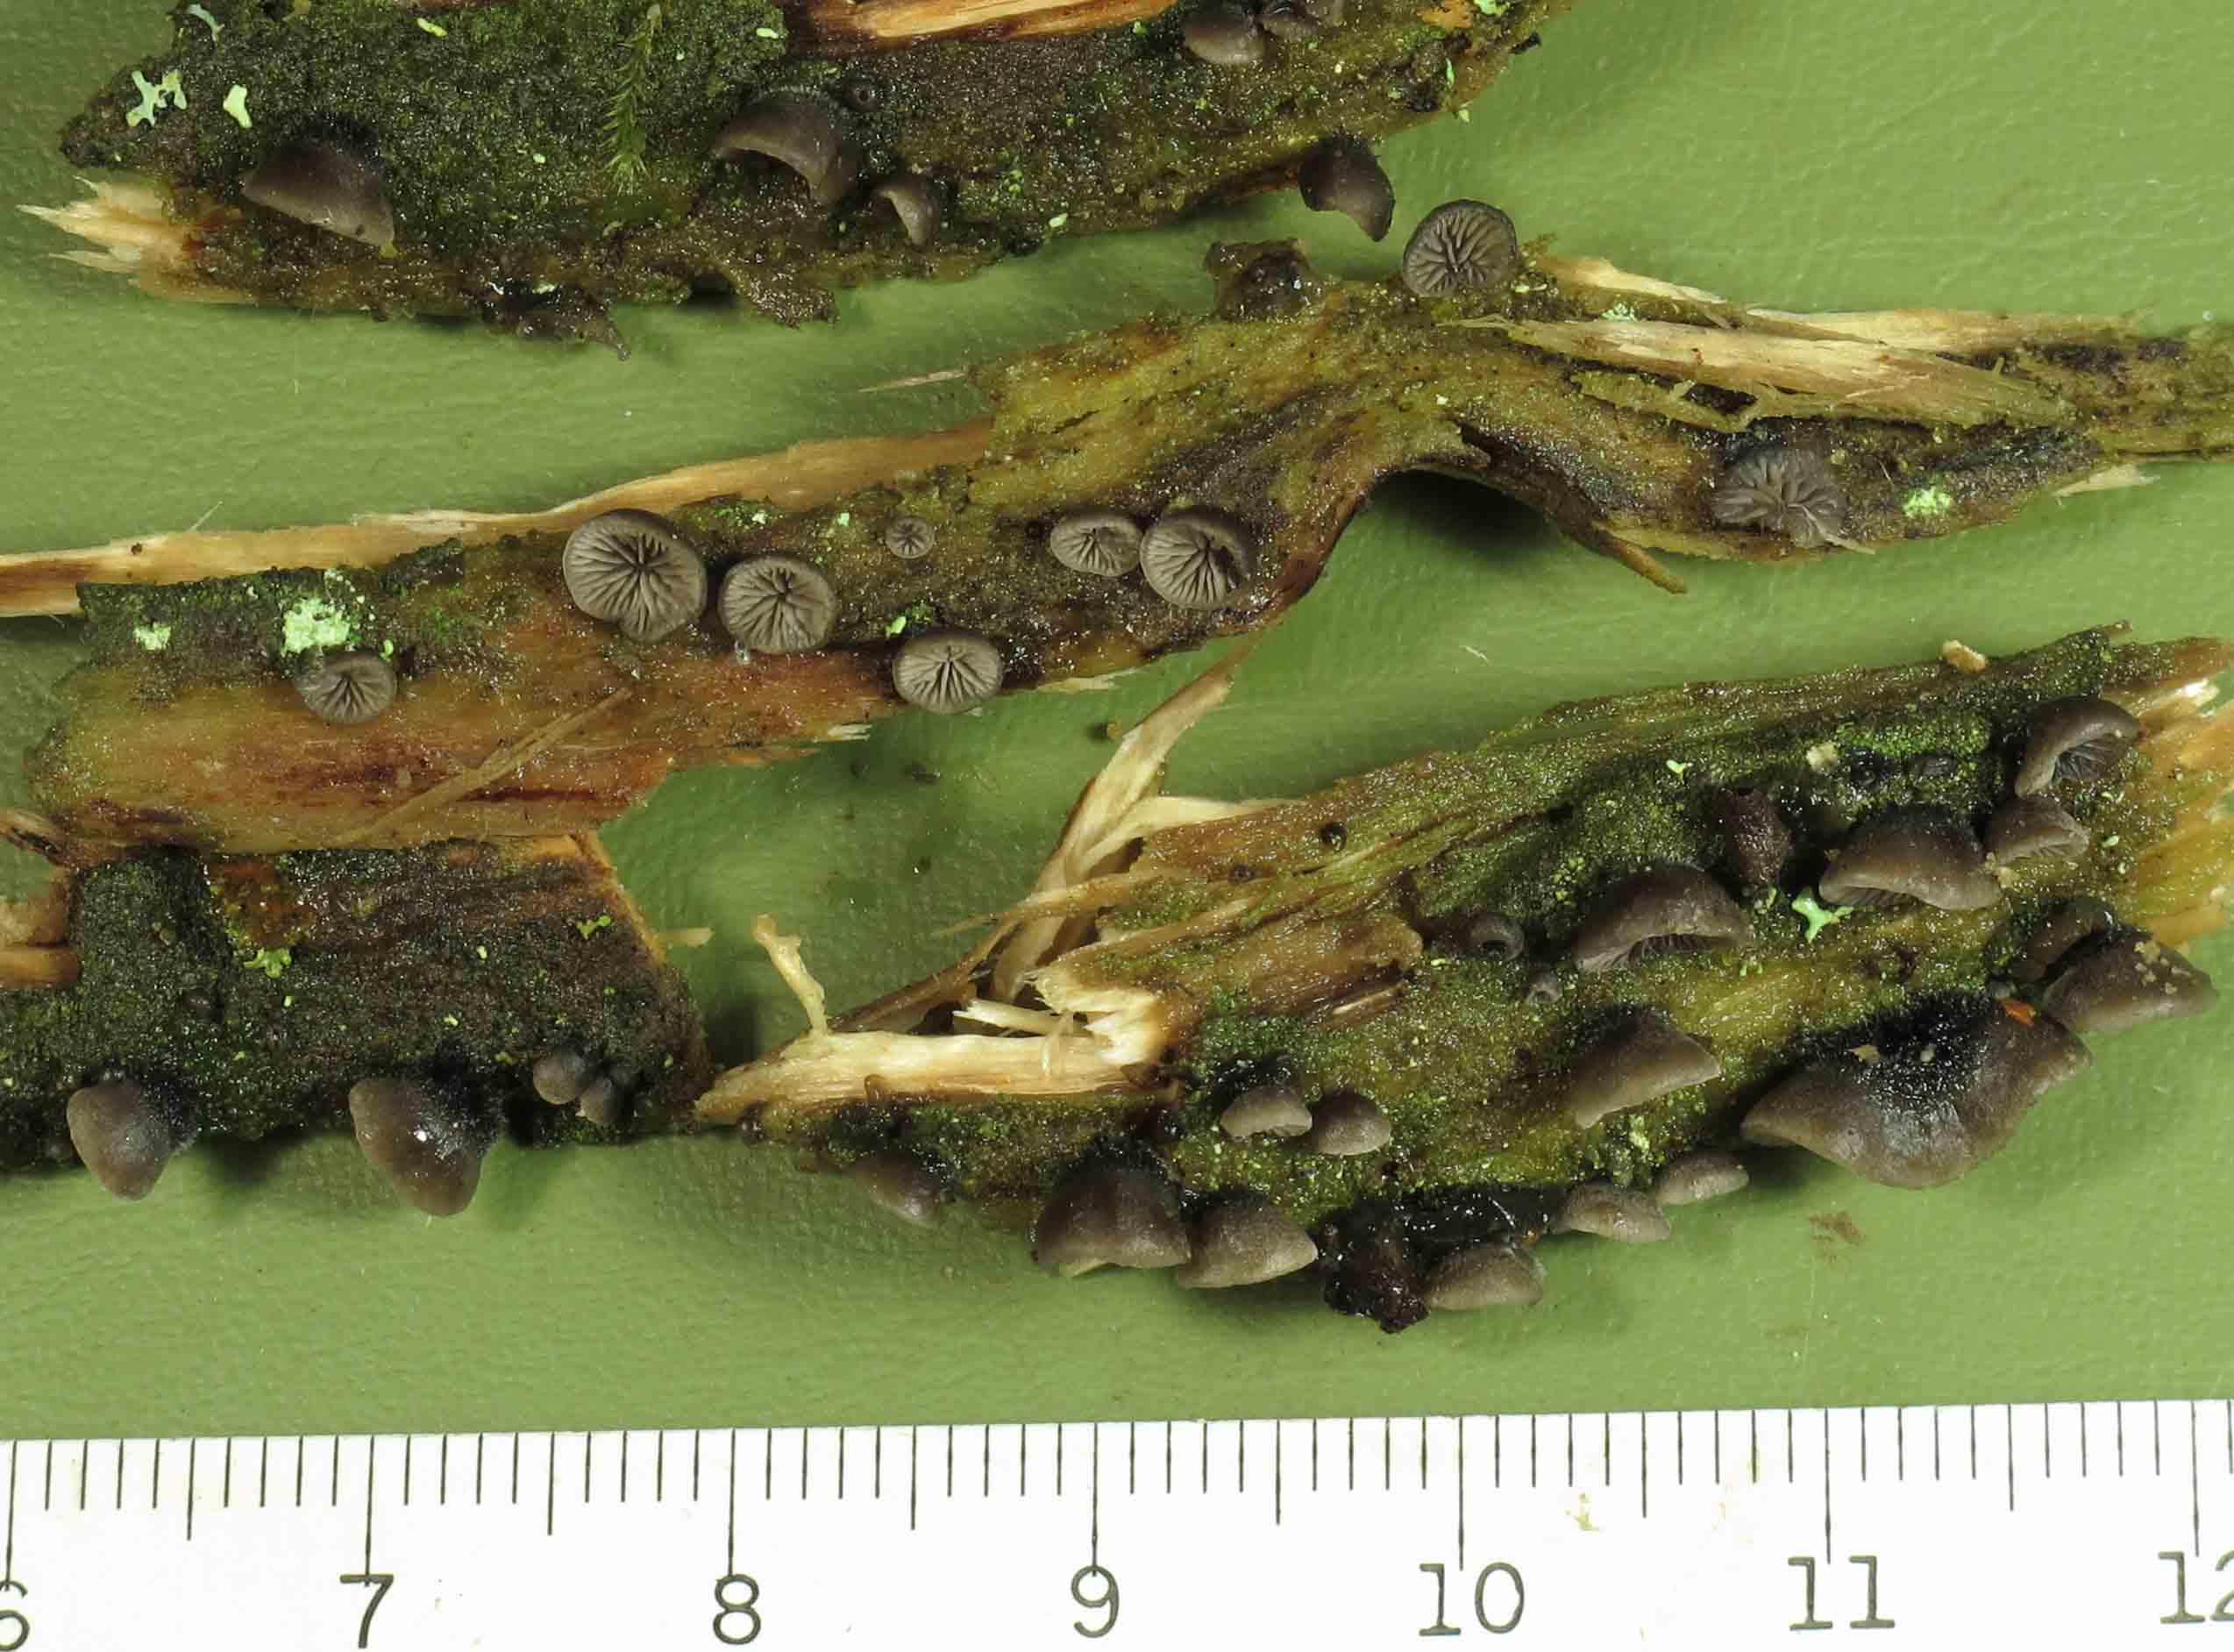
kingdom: Fungi
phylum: Basidiomycota
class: Agaricomycetes
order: Agaricales
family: Pleurotaceae
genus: Resupinatus
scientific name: Resupinatus trichotis
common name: mørkfiltet barkhat
